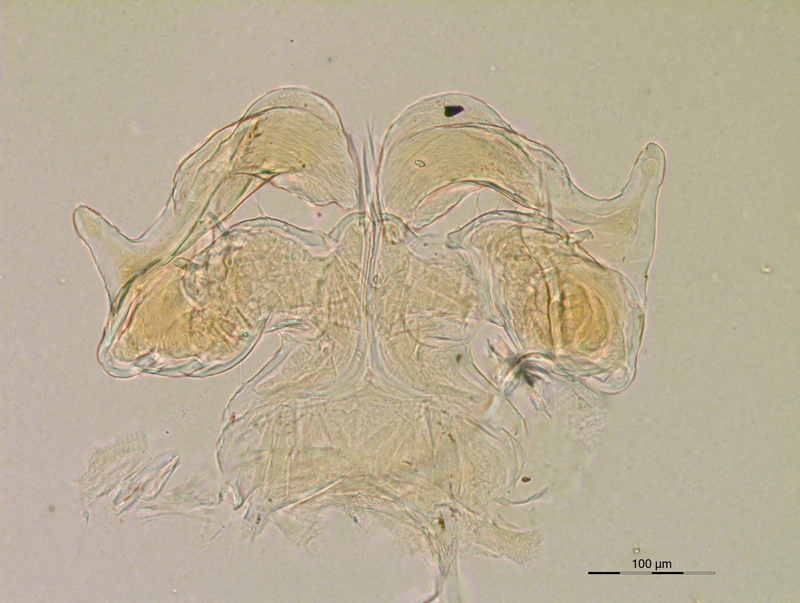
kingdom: Animalia
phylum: Arthropoda
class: Diplopoda
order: Julida
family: Rhopaloiulidae
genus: Rhopaloiulus
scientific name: Rhopaloiulus cameratanus
